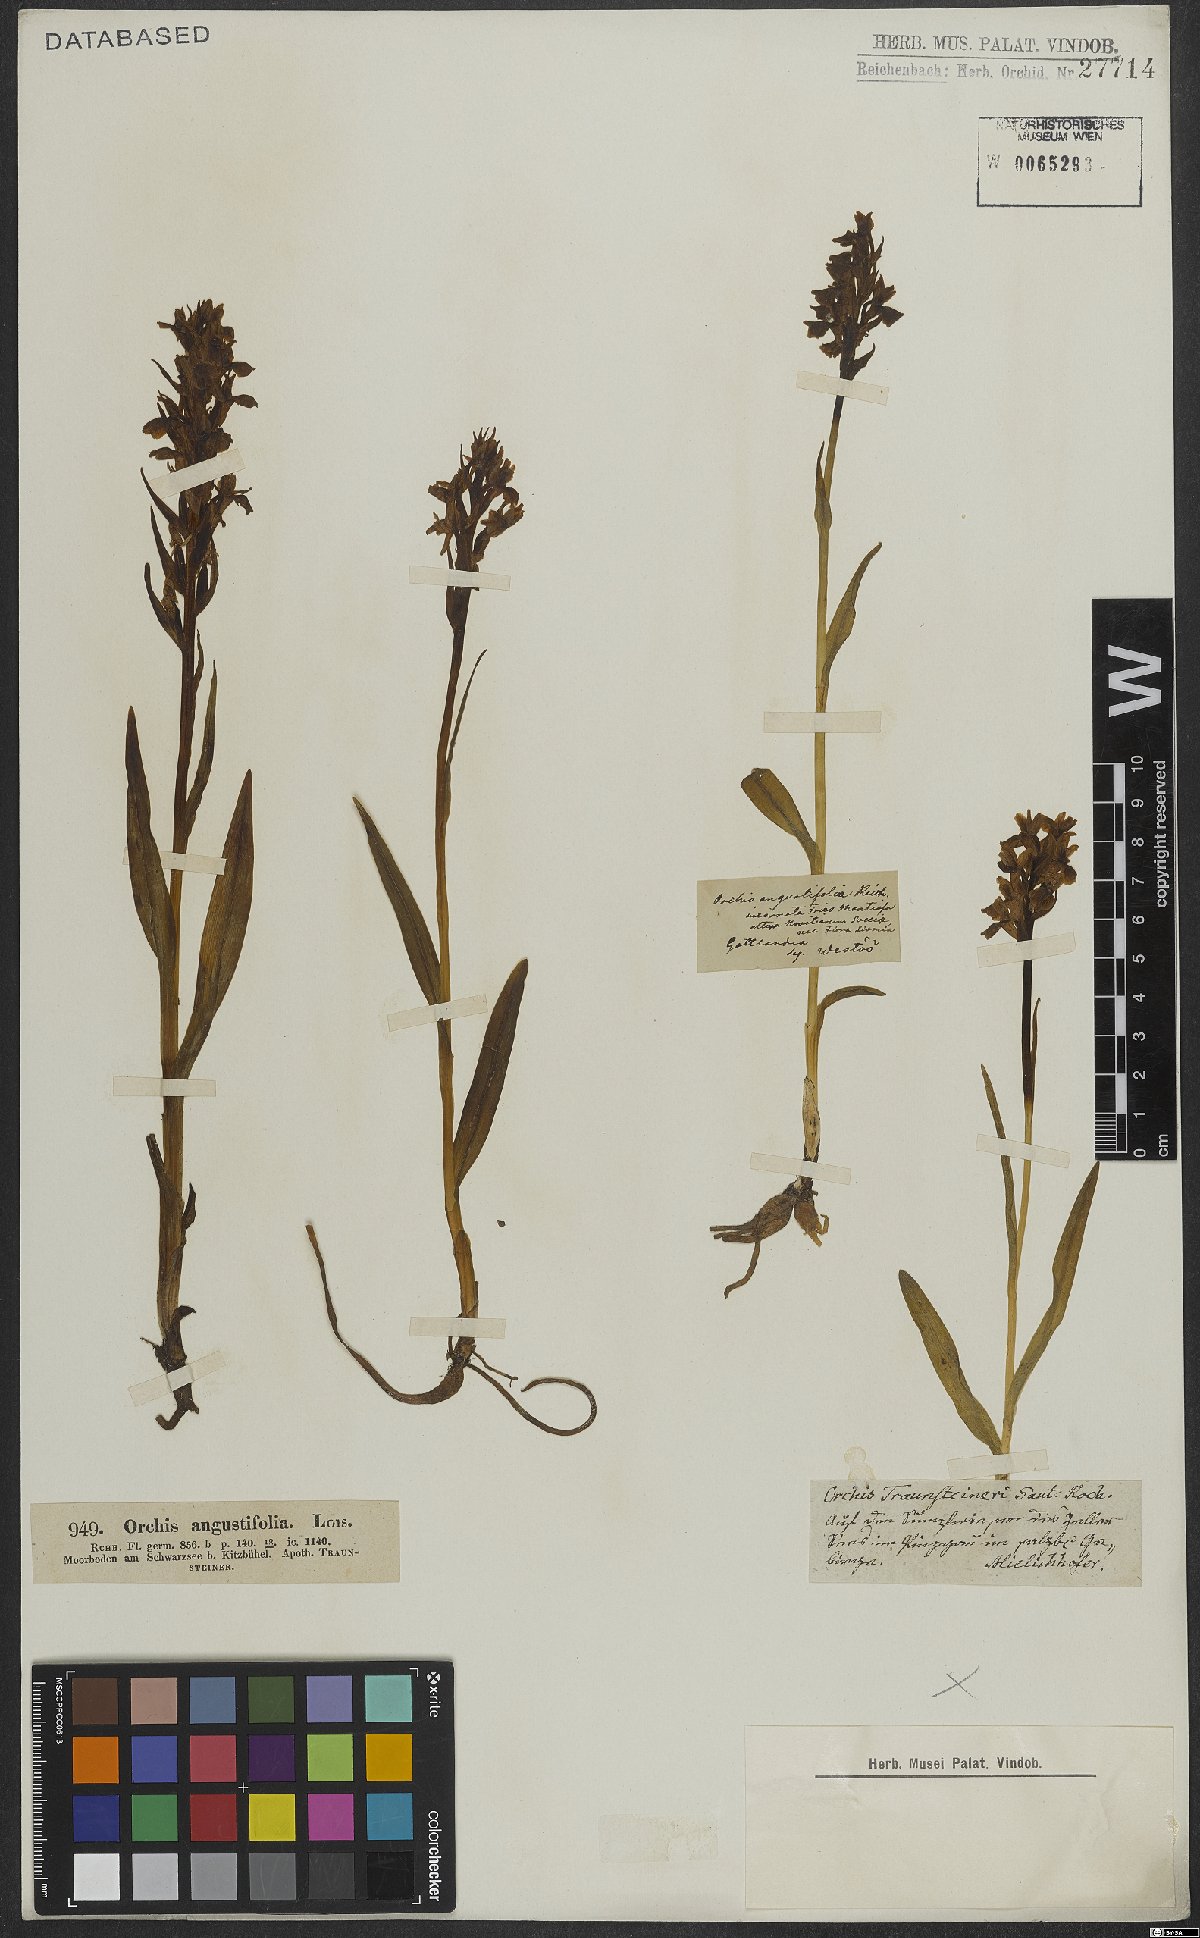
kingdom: Plantae
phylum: Tracheophyta
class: Liliopsida
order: Asparagales
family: Orchidaceae
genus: Dactylorhiza
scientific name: Dactylorhiza incarnata
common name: Early marsh-orchid
